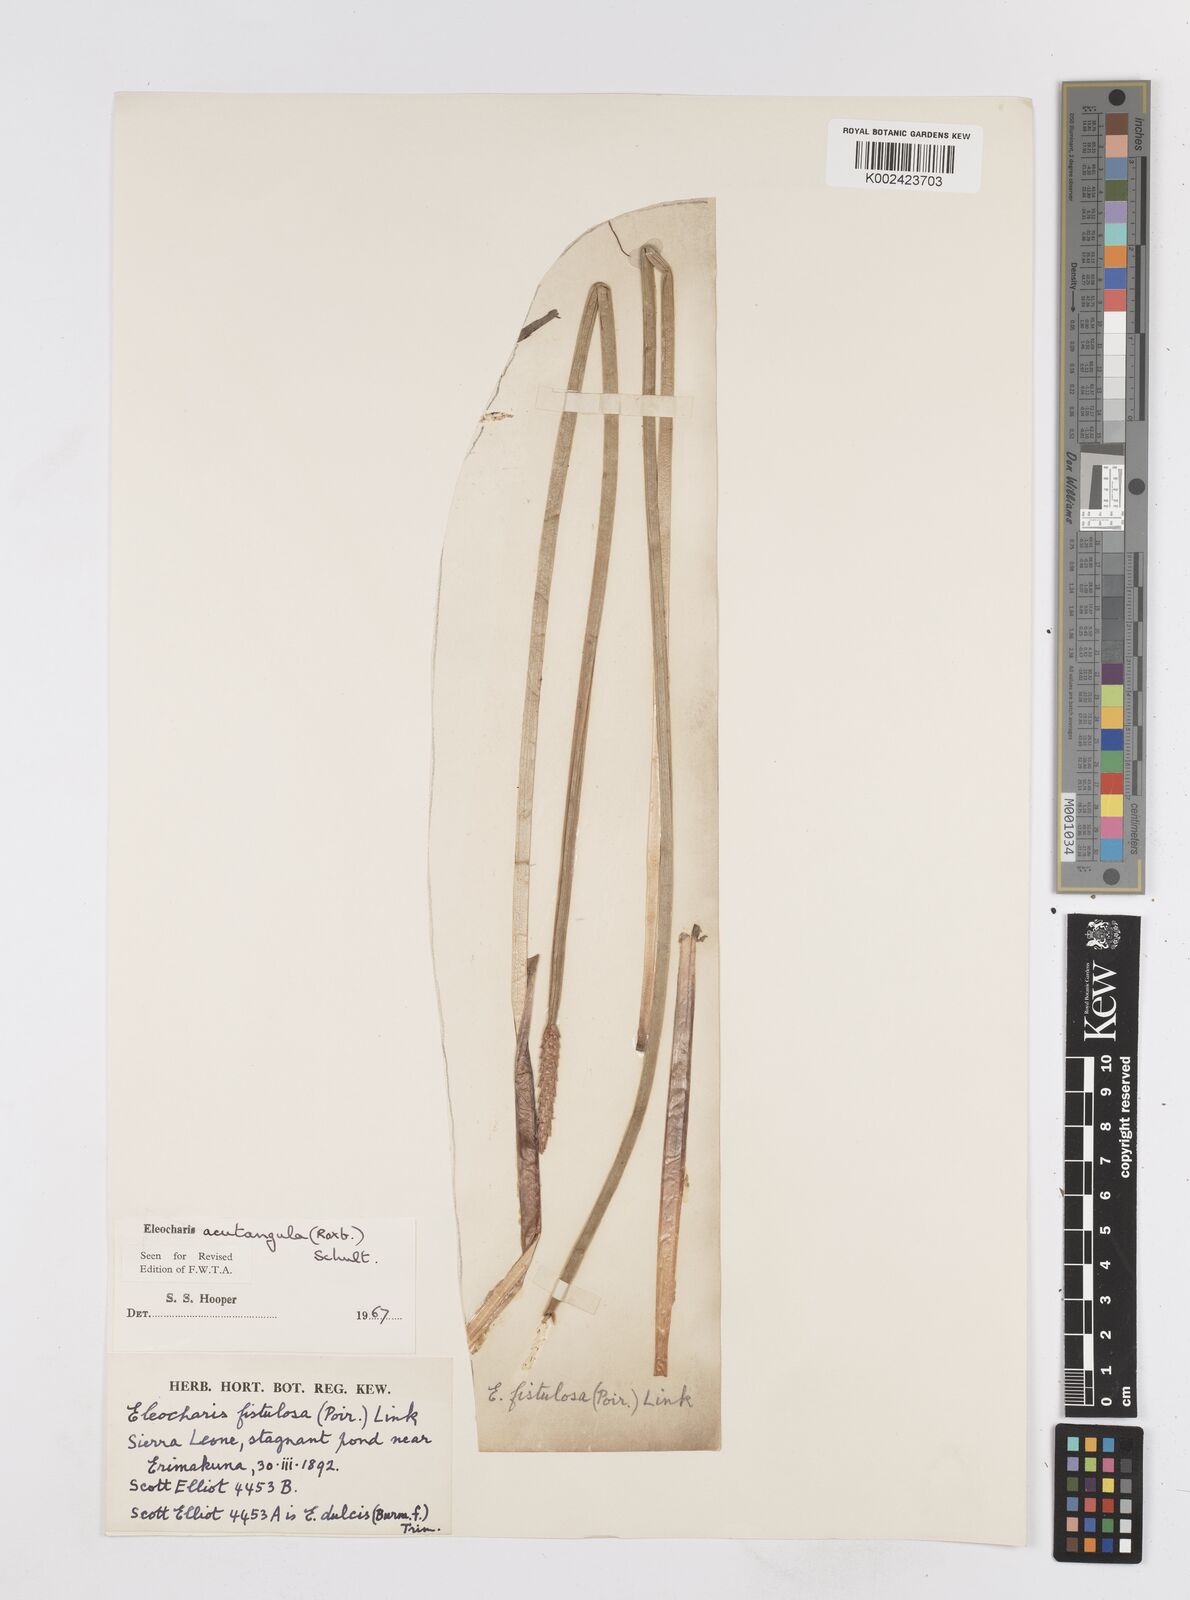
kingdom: Plantae
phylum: Tracheophyta
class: Liliopsida
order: Poales
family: Cyperaceae
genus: Eleocharis
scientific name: Eleocharis acutangula
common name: Acute spikerush
